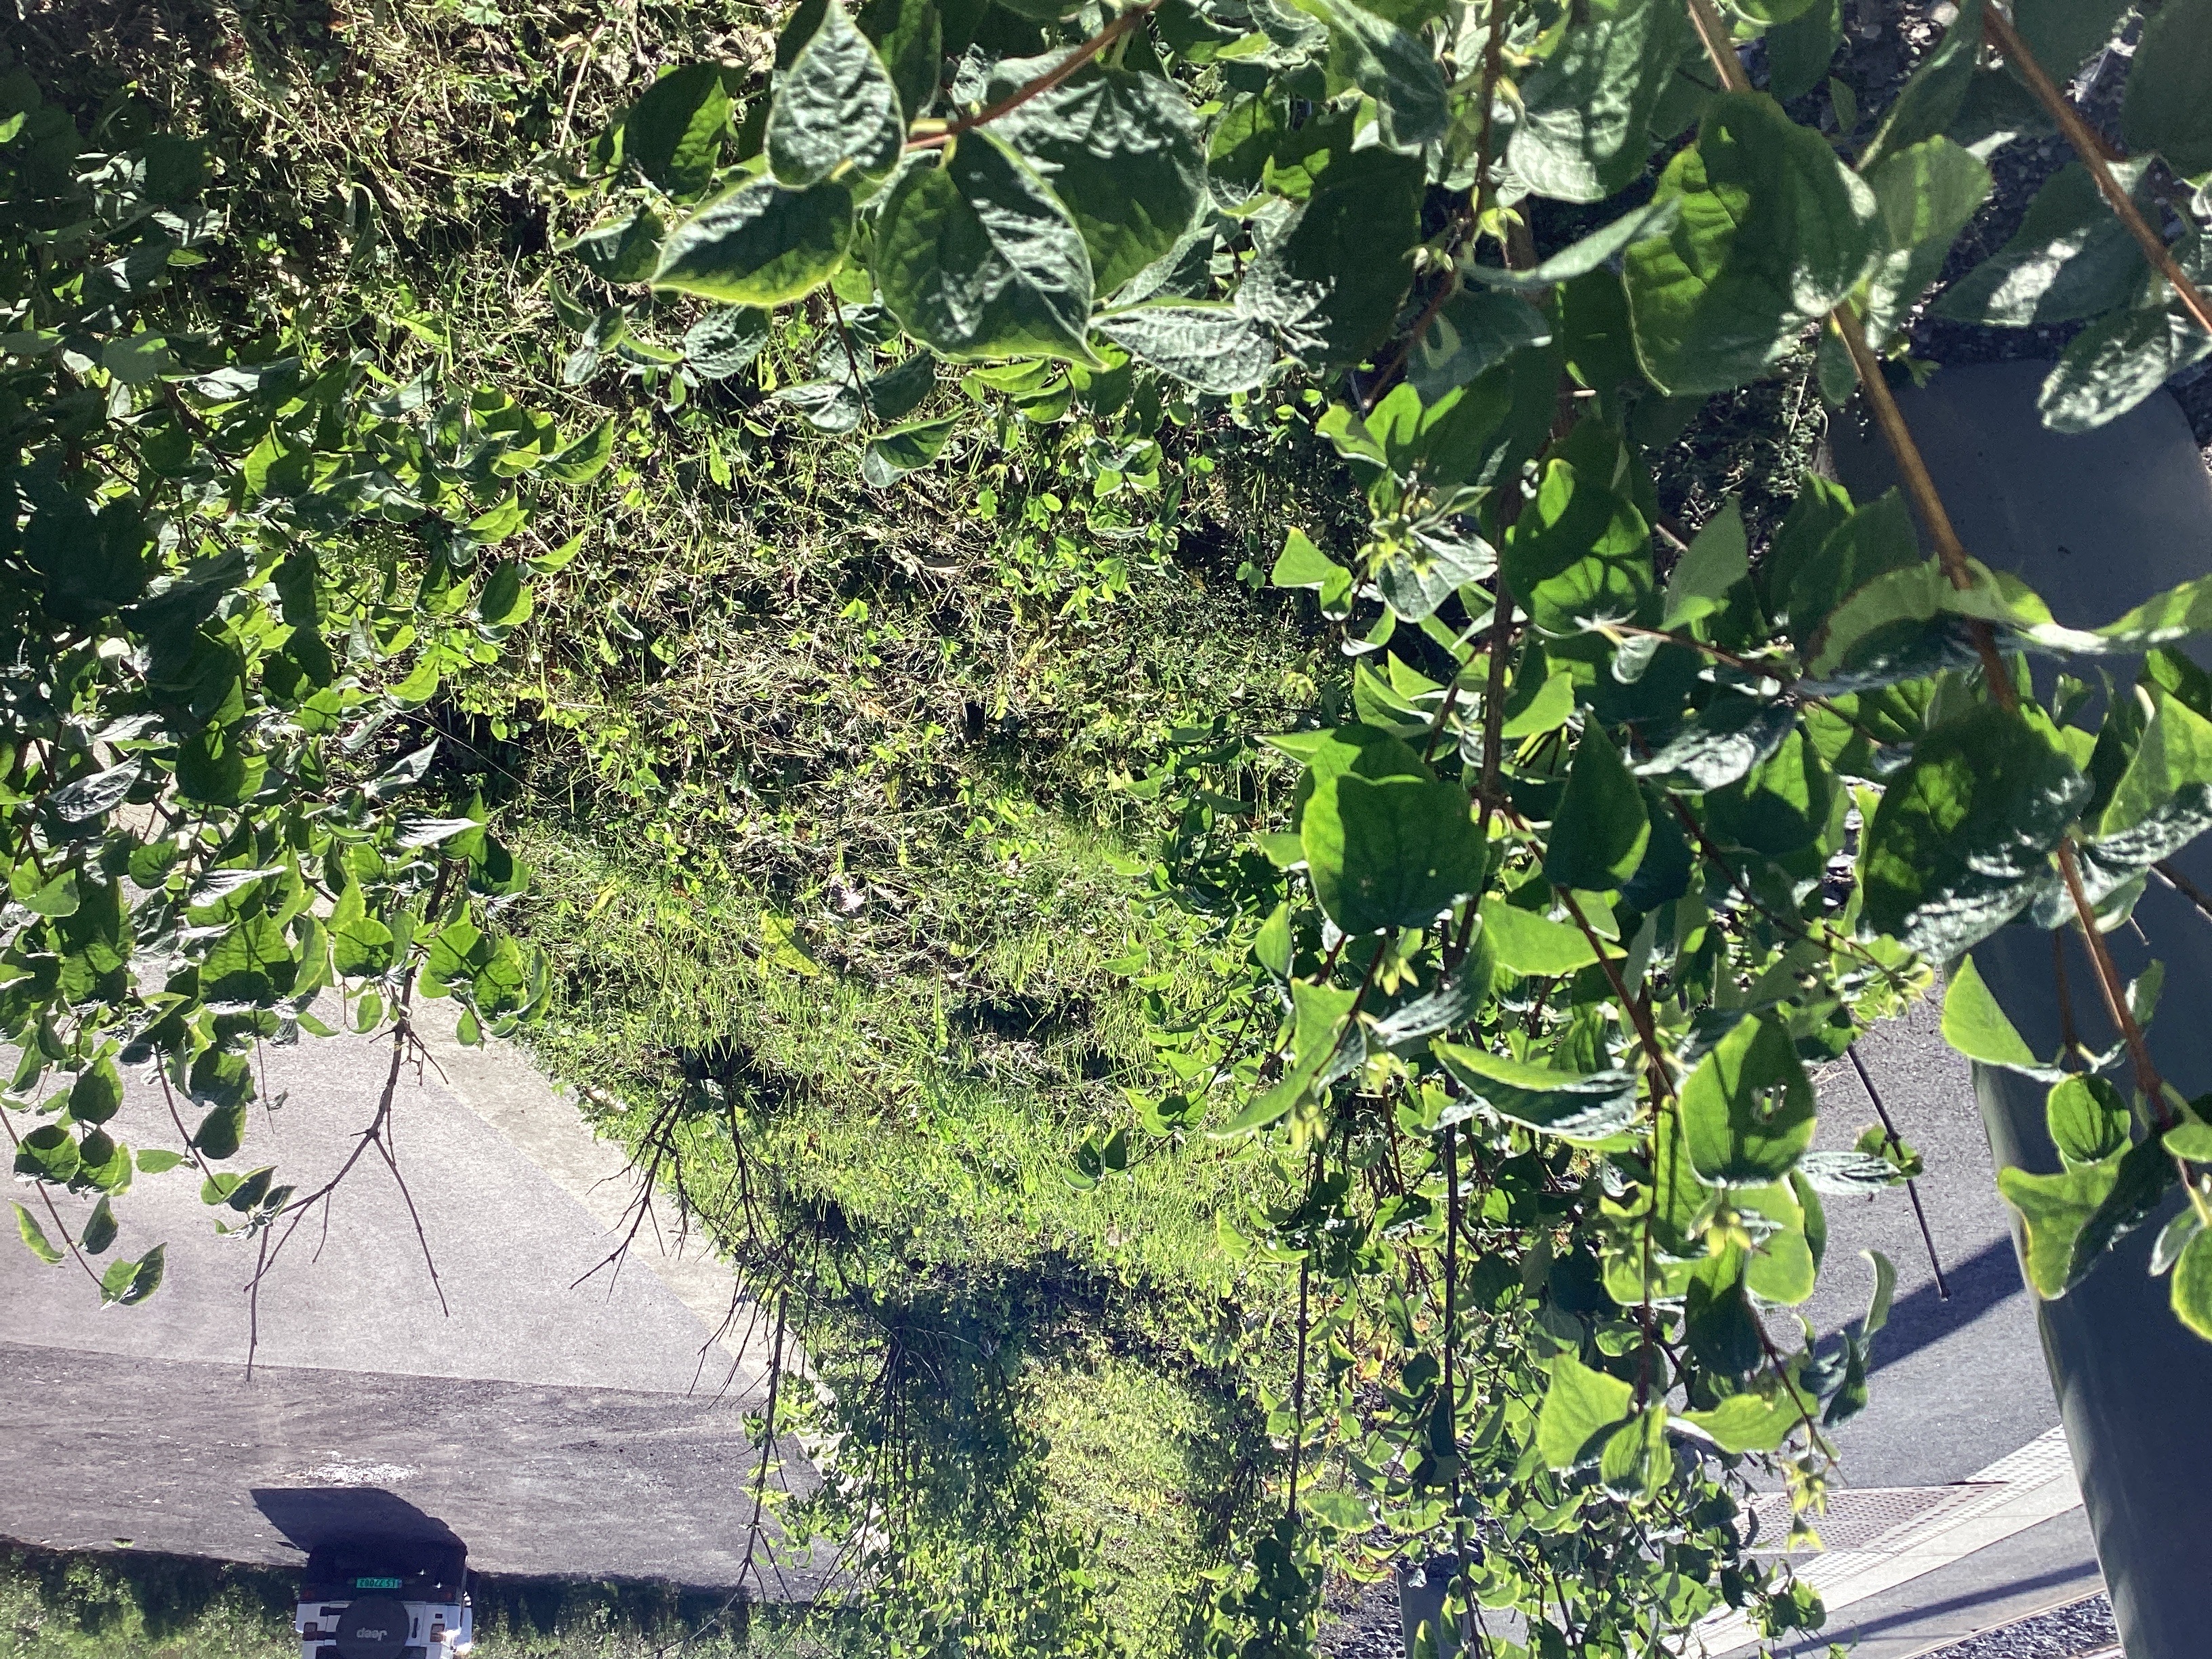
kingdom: Plantae
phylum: Tracheophyta
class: Magnoliopsida
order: Cornales
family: Hydrangeaceae
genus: Philadelphus
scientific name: Philadelphus coronarius
